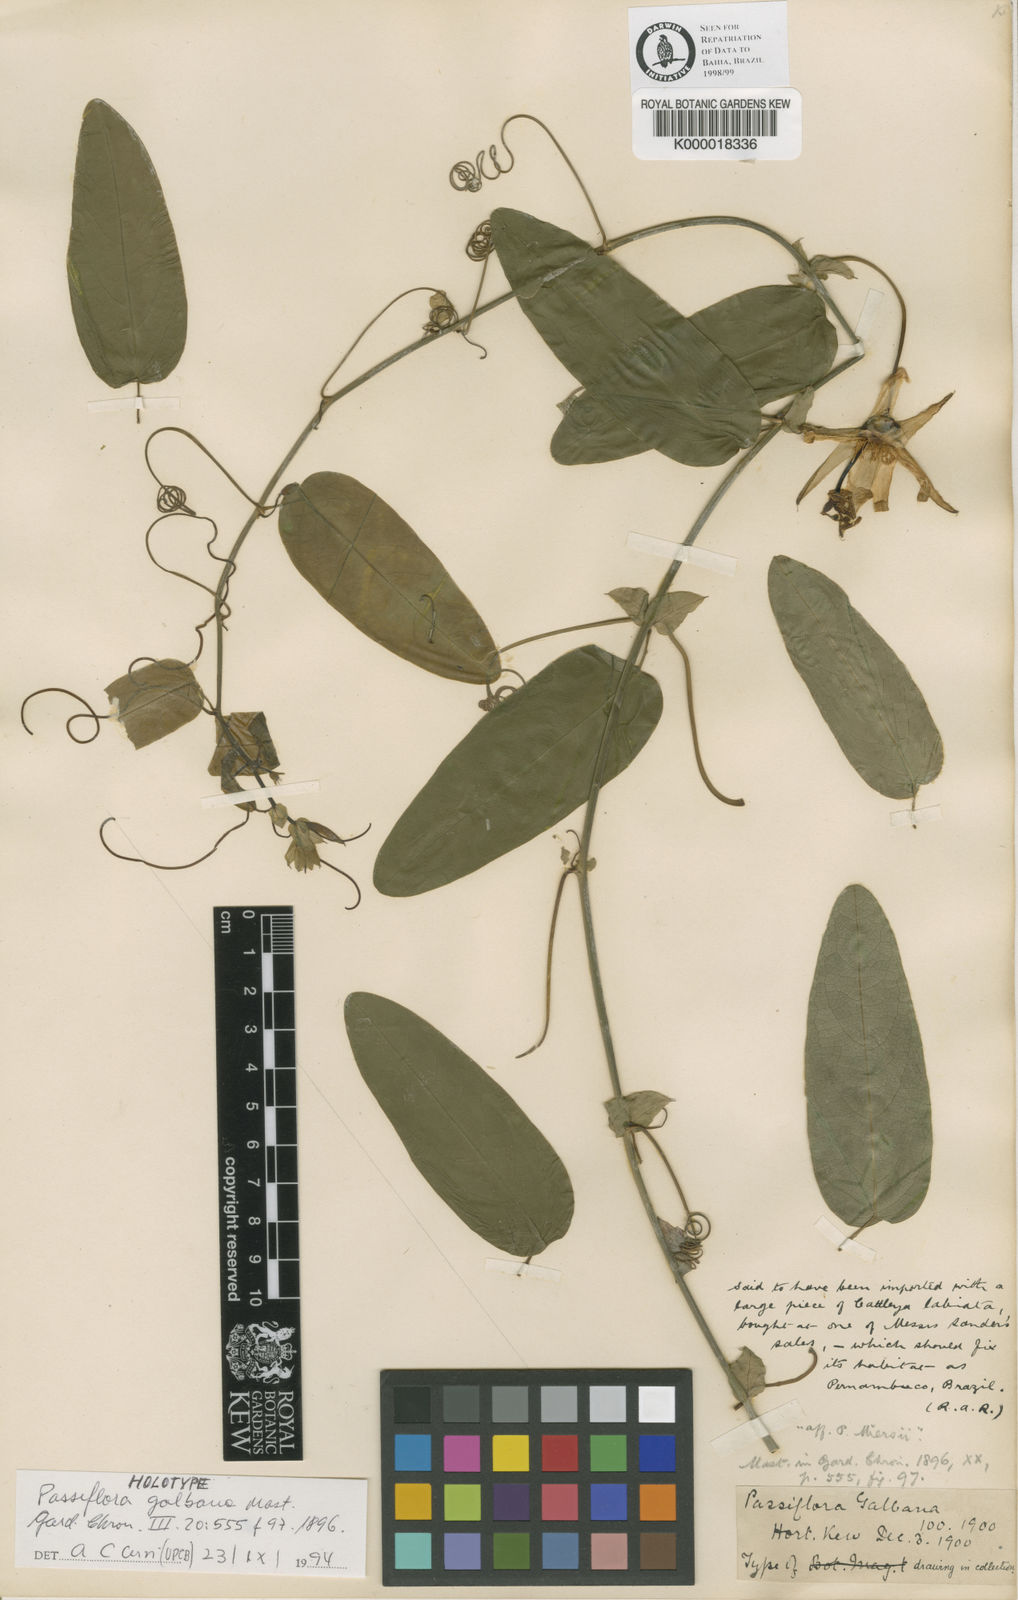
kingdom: Plantae
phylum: Tracheophyta
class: Magnoliopsida
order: Malpighiales
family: Passifloraceae
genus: Passiflora
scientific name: Passiflora silvestris
